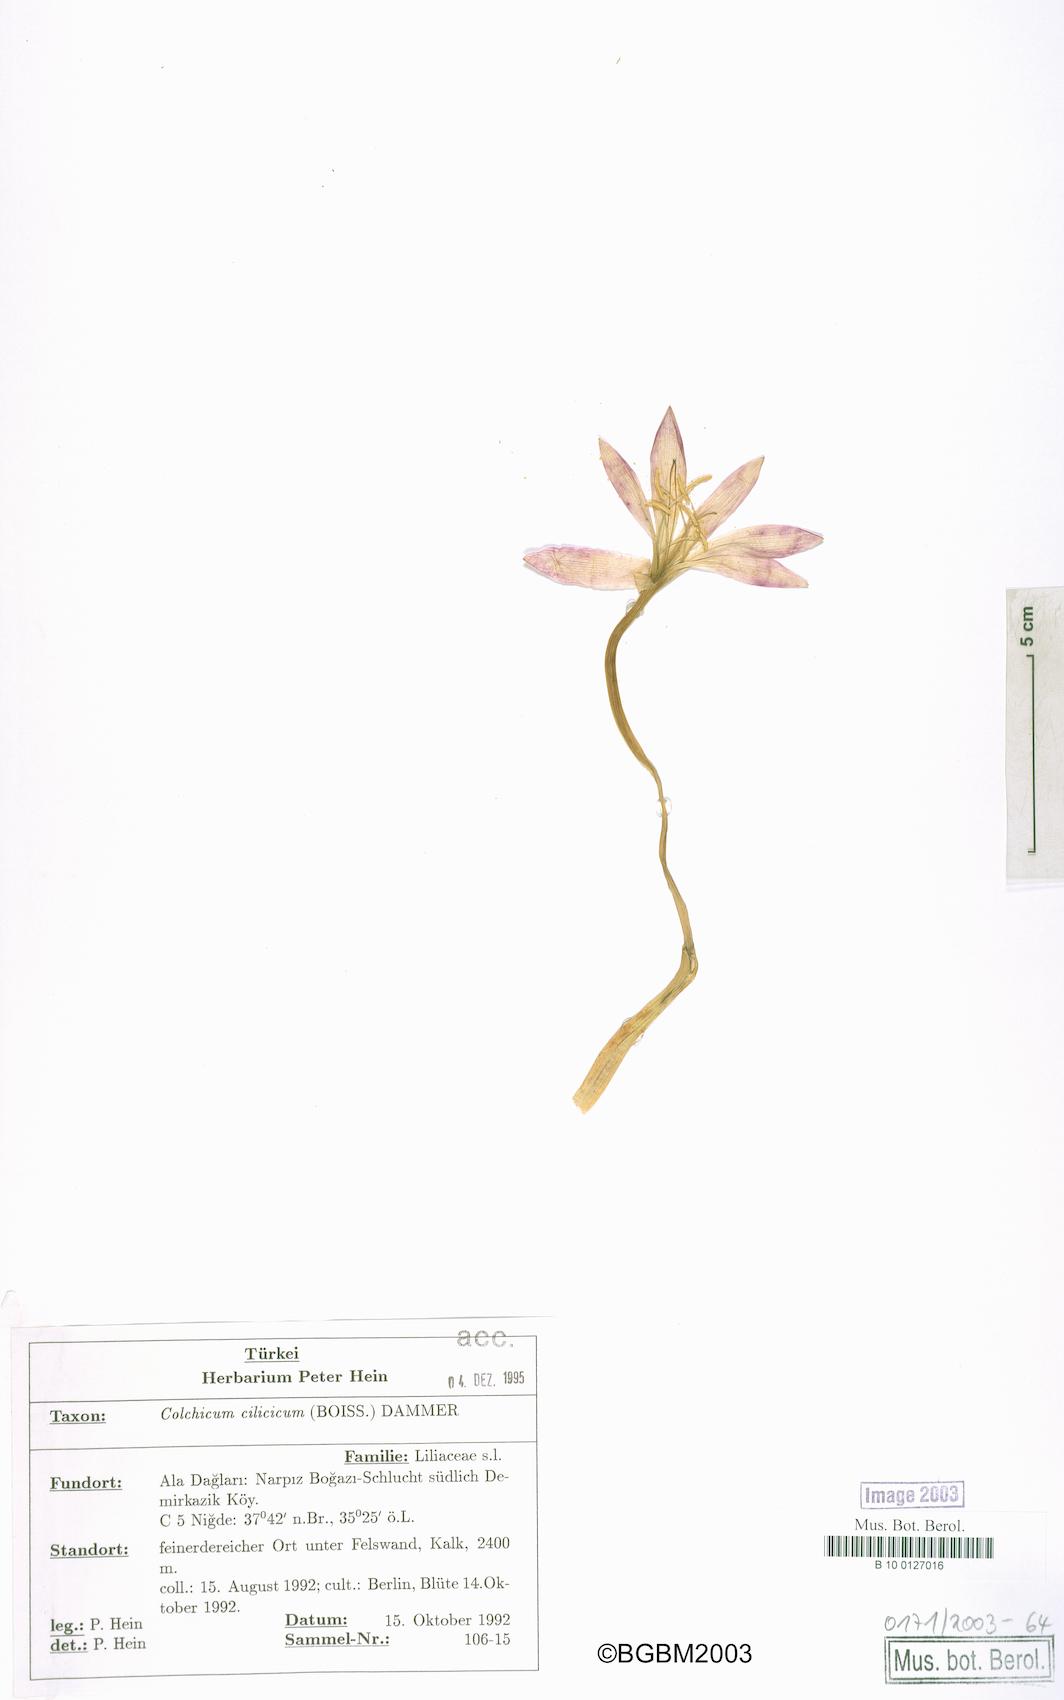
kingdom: Plantae
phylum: Tracheophyta
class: Liliopsida
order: Liliales
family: Colchicaceae
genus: Colchicum
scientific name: Colchicum cilicicum
